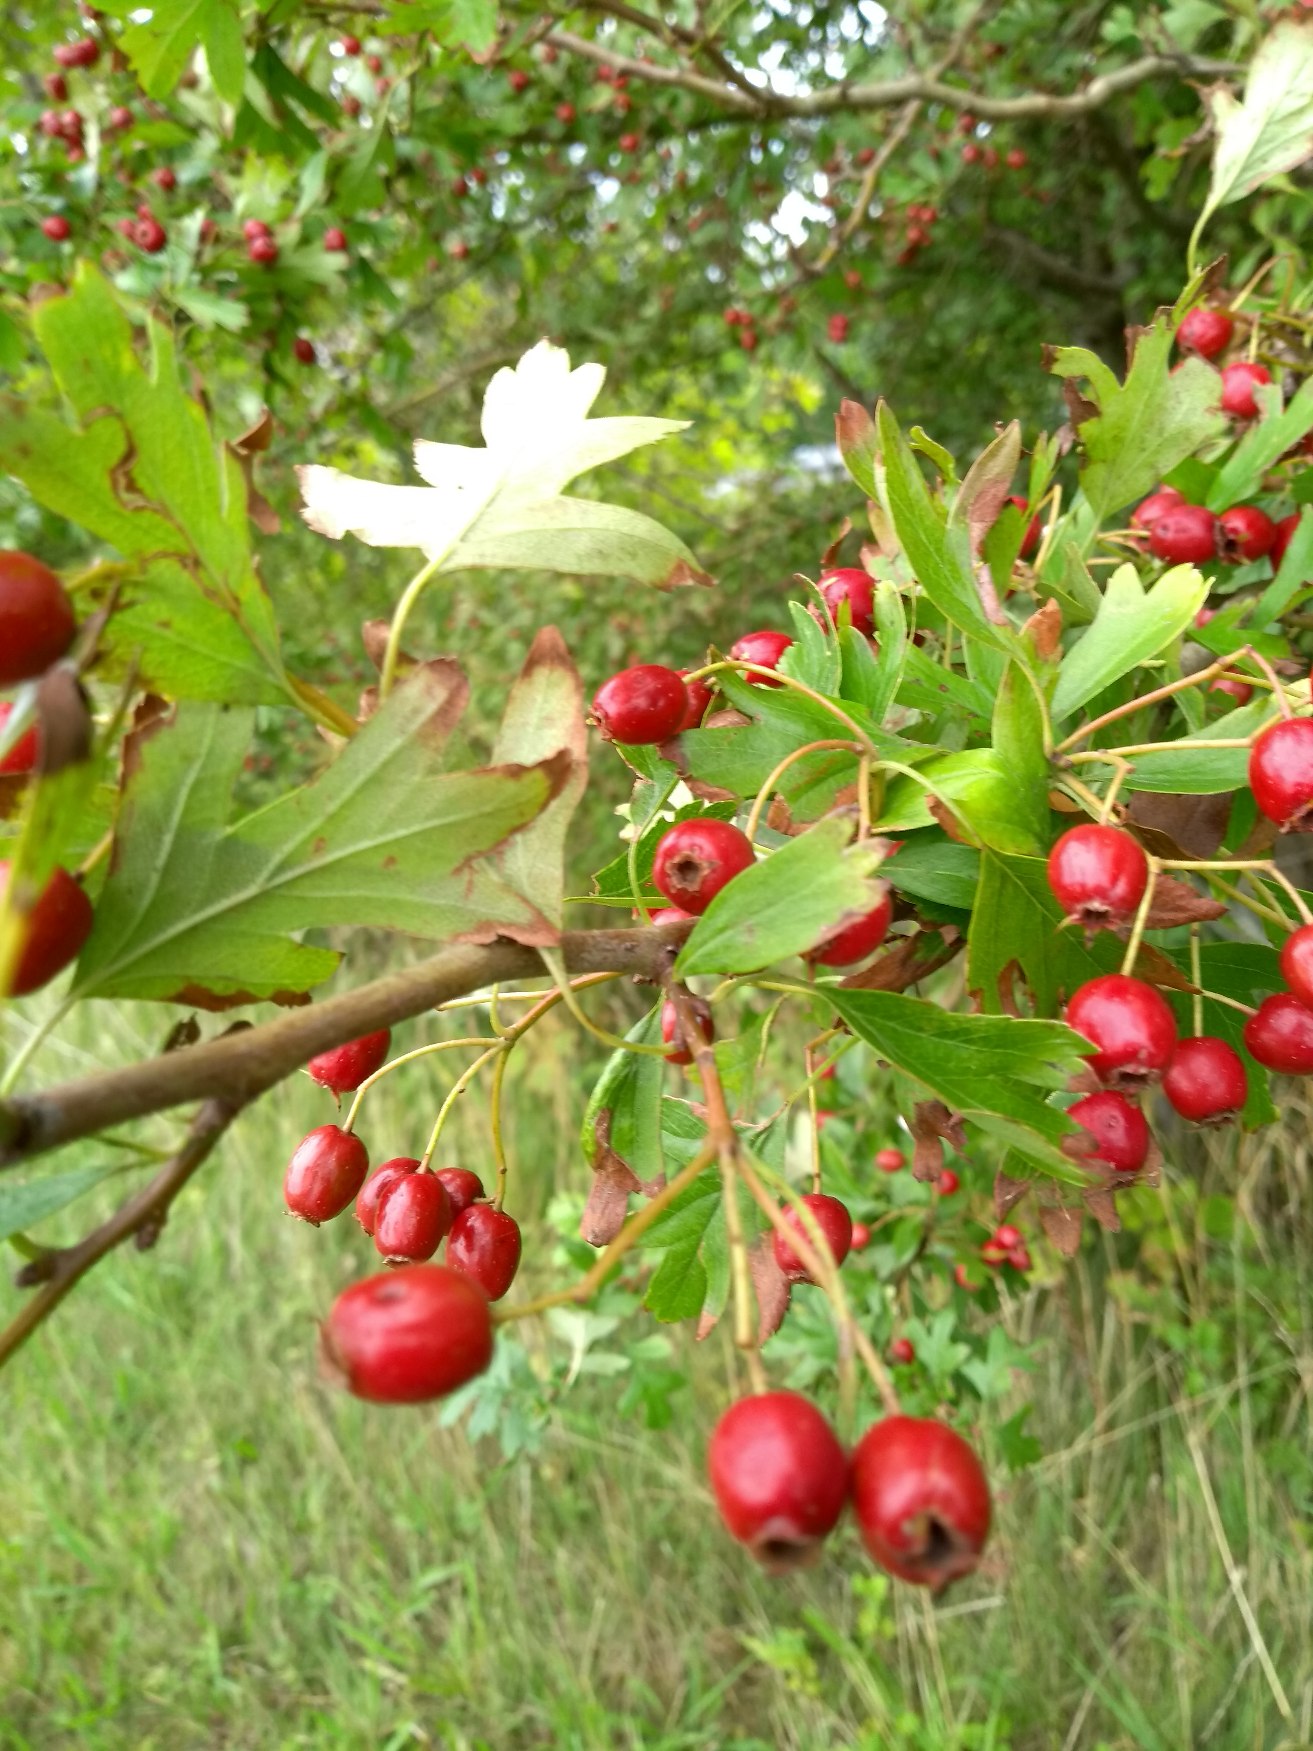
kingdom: Plantae
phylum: Tracheophyta
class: Magnoliopsida
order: Rosales
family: Rosaceae
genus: Crataegus
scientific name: Crataegus monogyna
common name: Engriflet hvidtjørn
